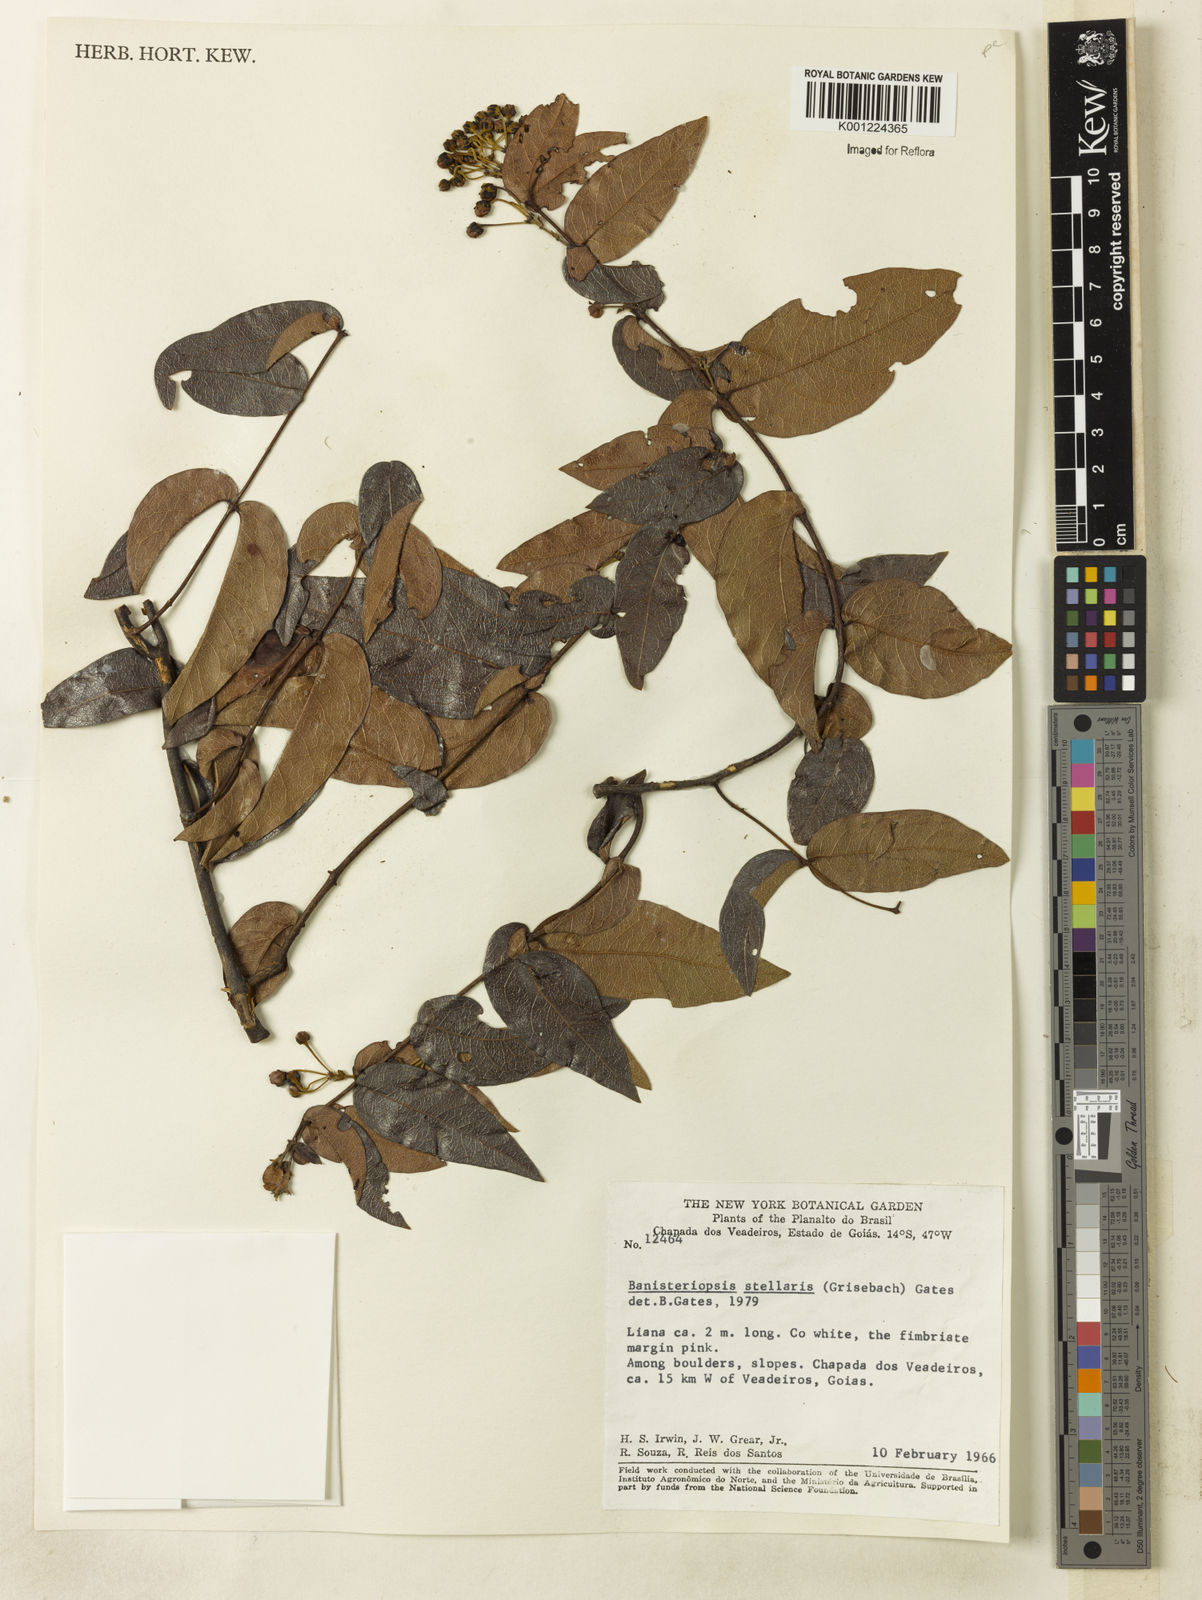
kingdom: Plantae
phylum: Tracheophyta
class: Magnoliopsida
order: Malpighiales
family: Malpighiaceae
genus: Banisteriopsis
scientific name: Banisteriopsis stellaris
